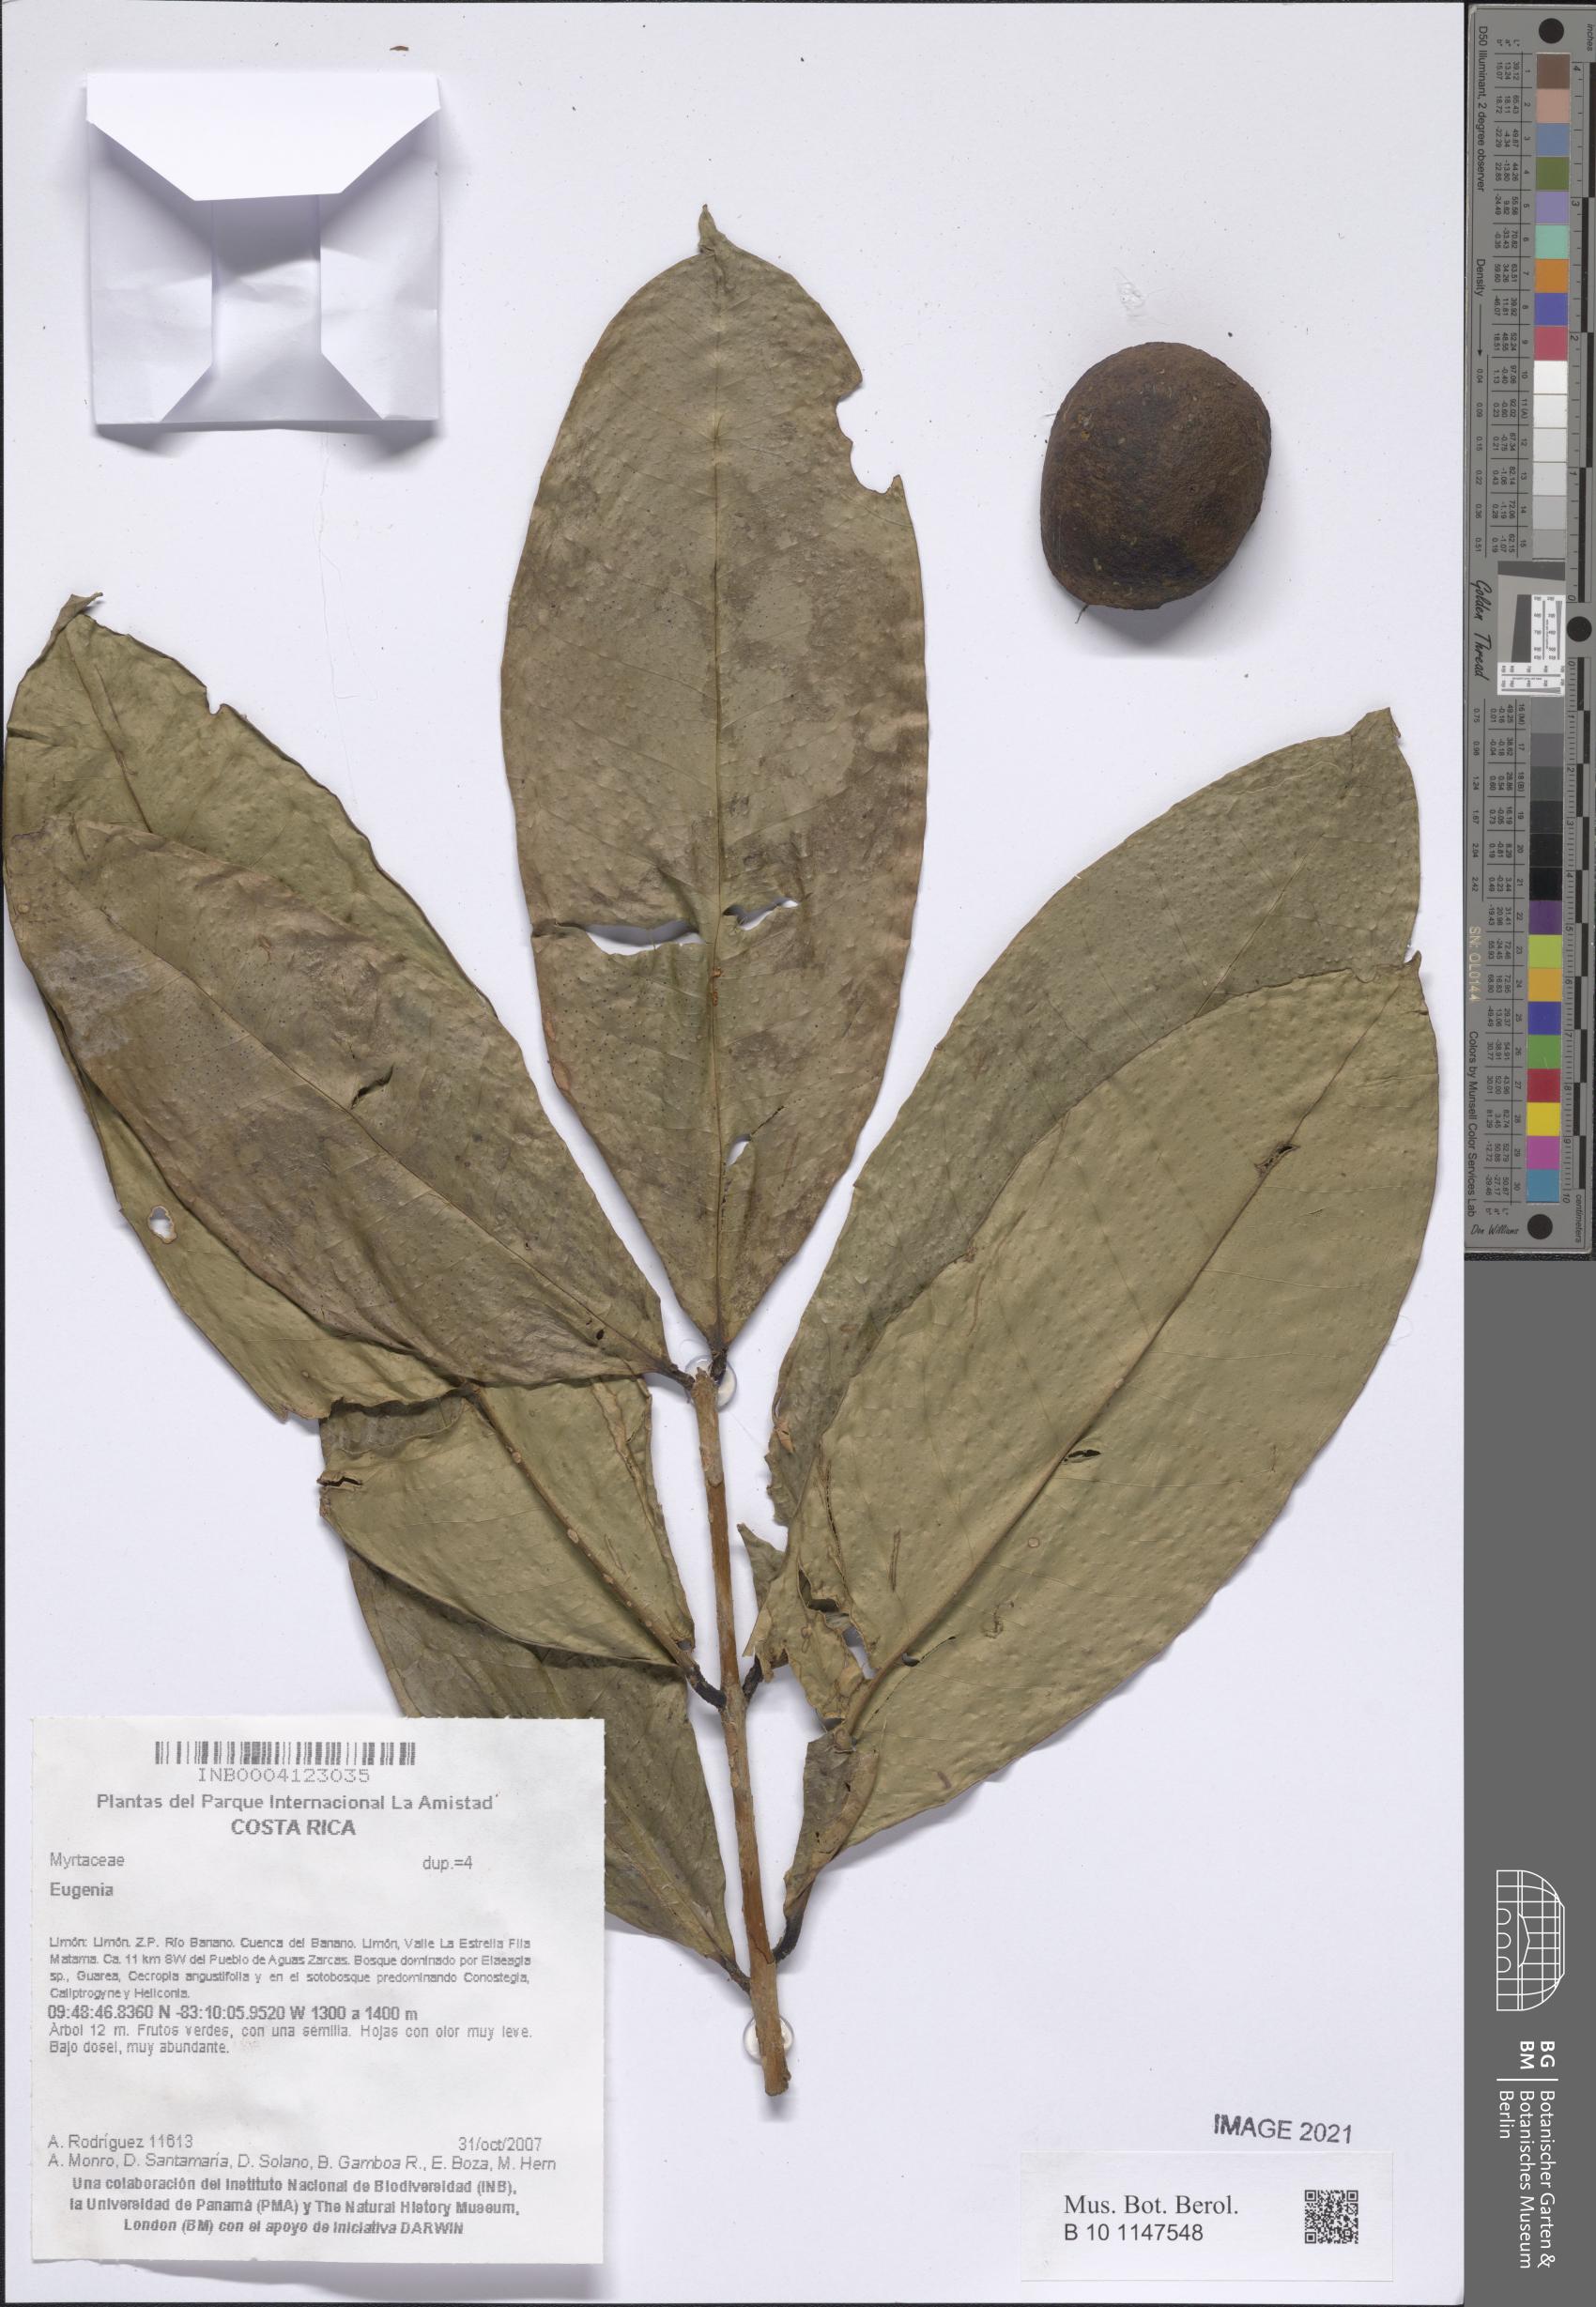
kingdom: Plantae
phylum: Tracheophyta
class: Magnoliopsida
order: Myrtales
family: Myrtaceae
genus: Eugenia
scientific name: Eugenia
